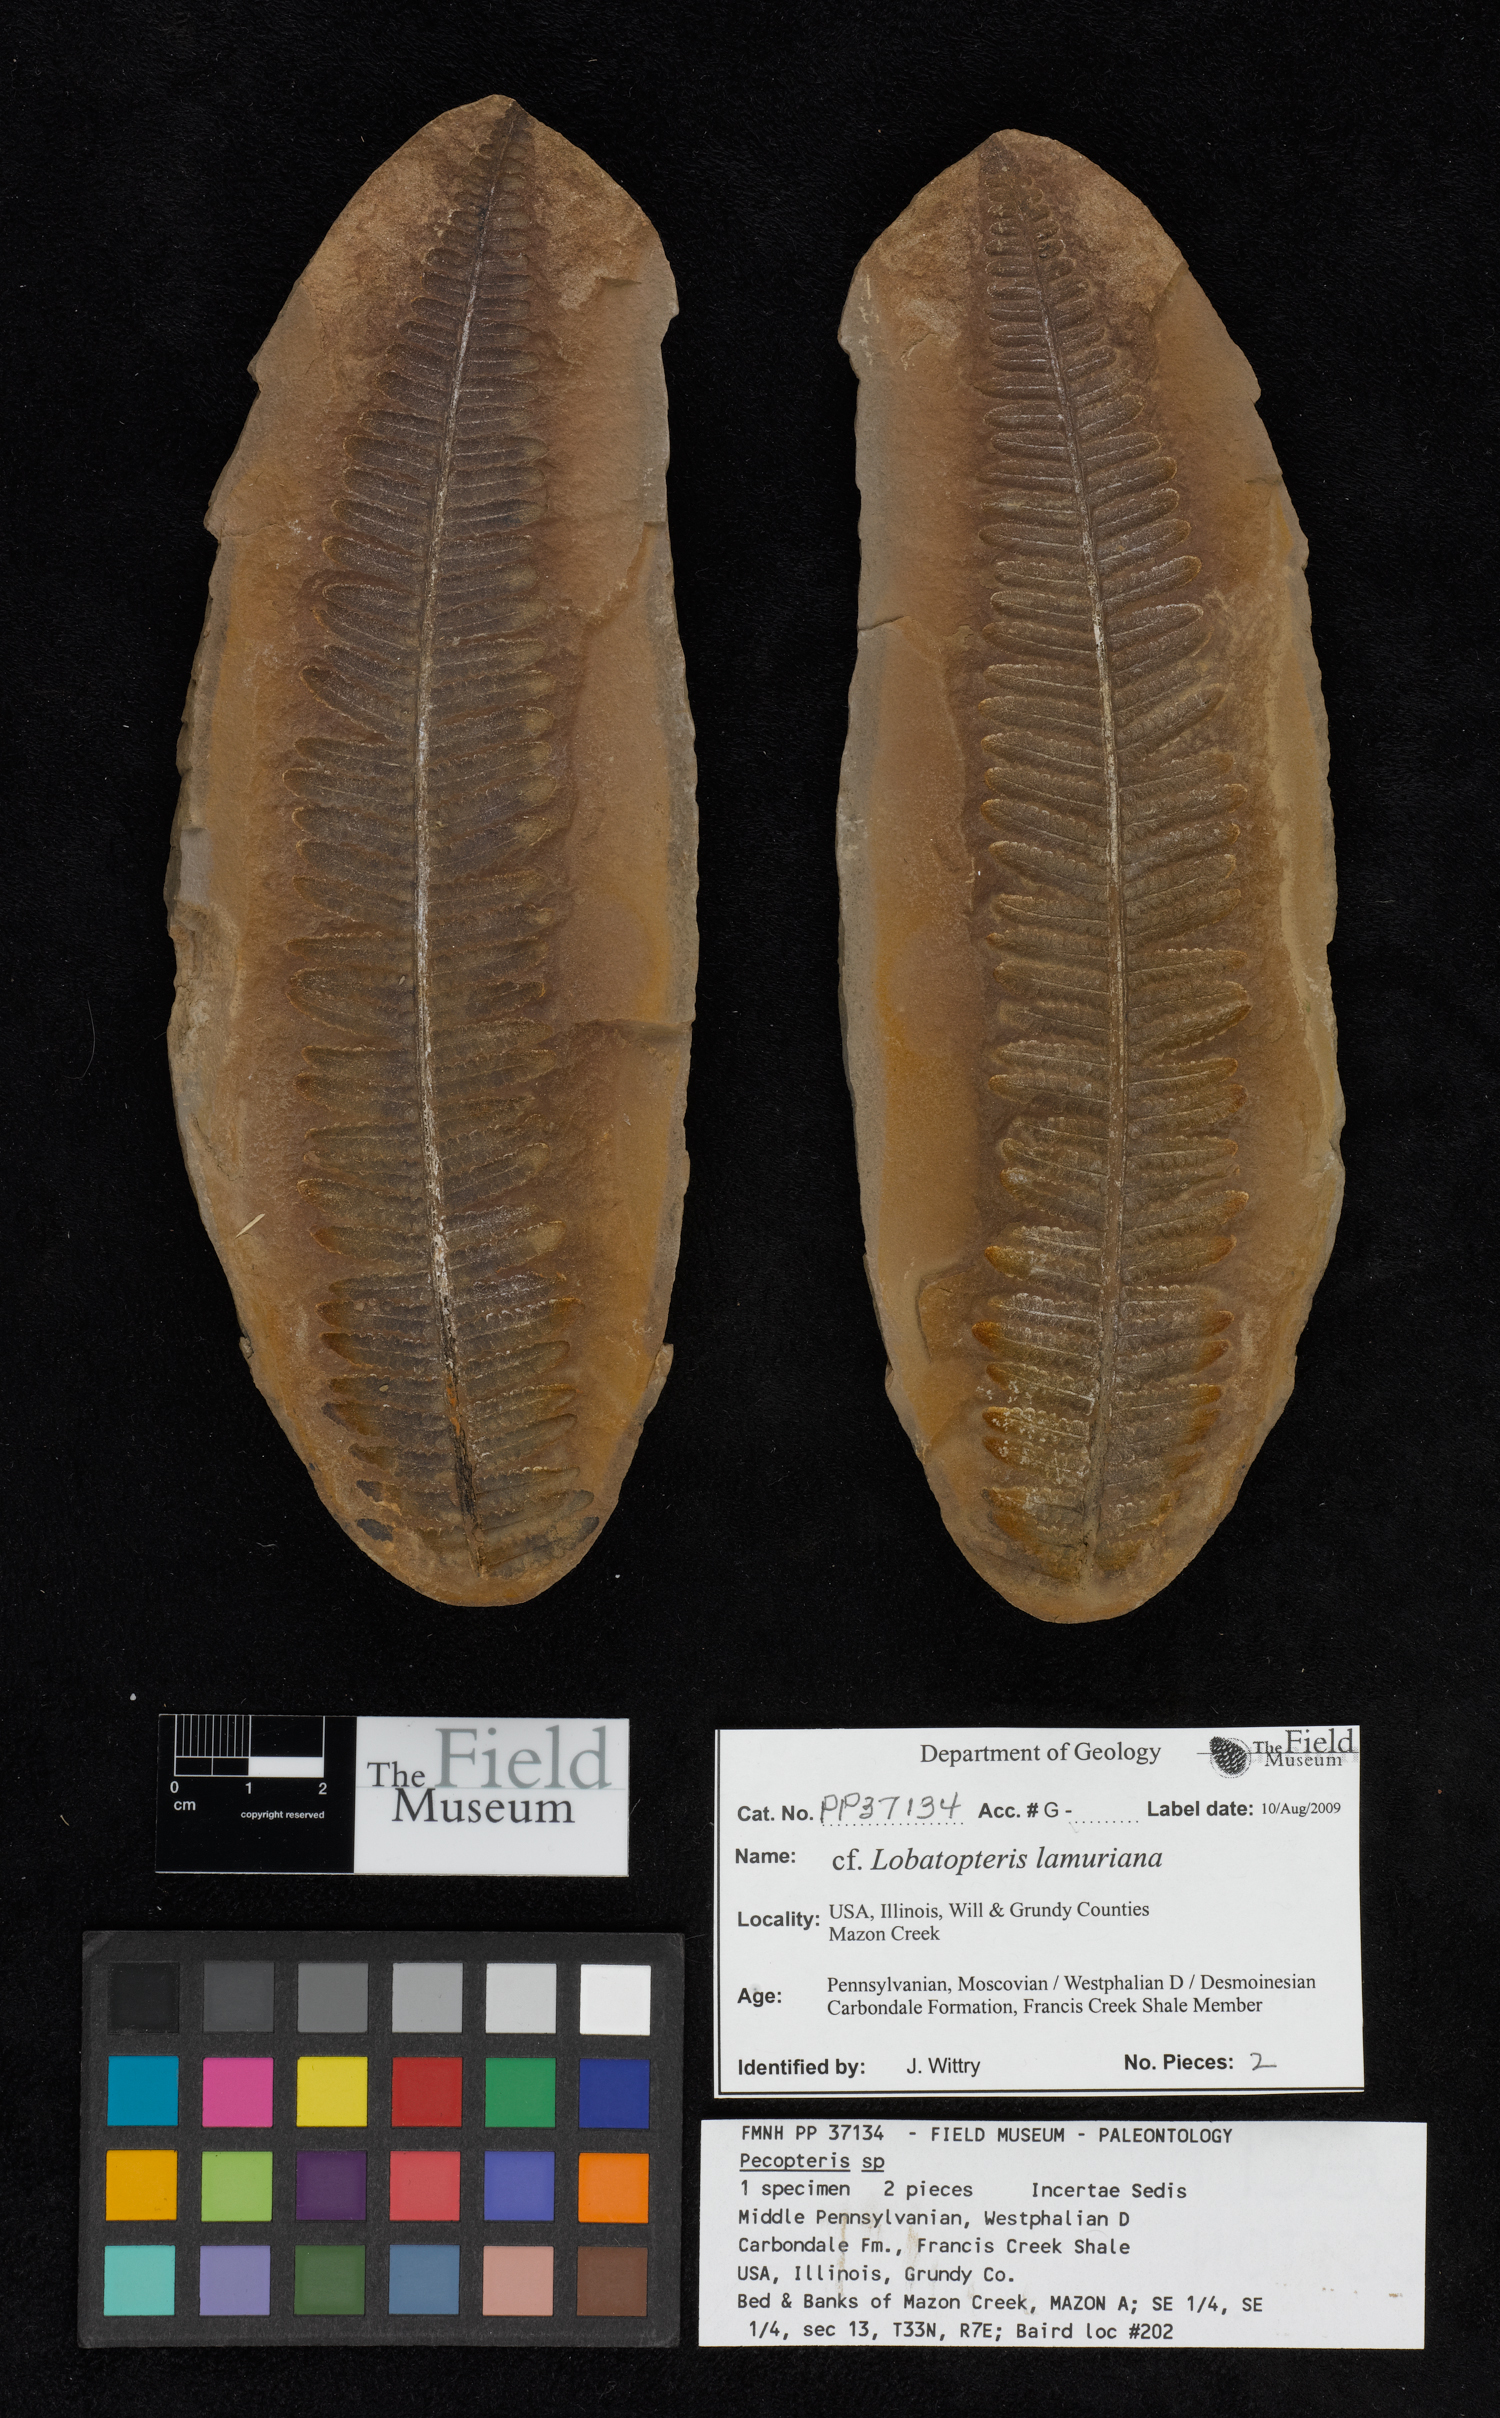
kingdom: Plantae
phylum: Tracheophyta
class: Polypodiopsida
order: Marattiales
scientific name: Marattiales
